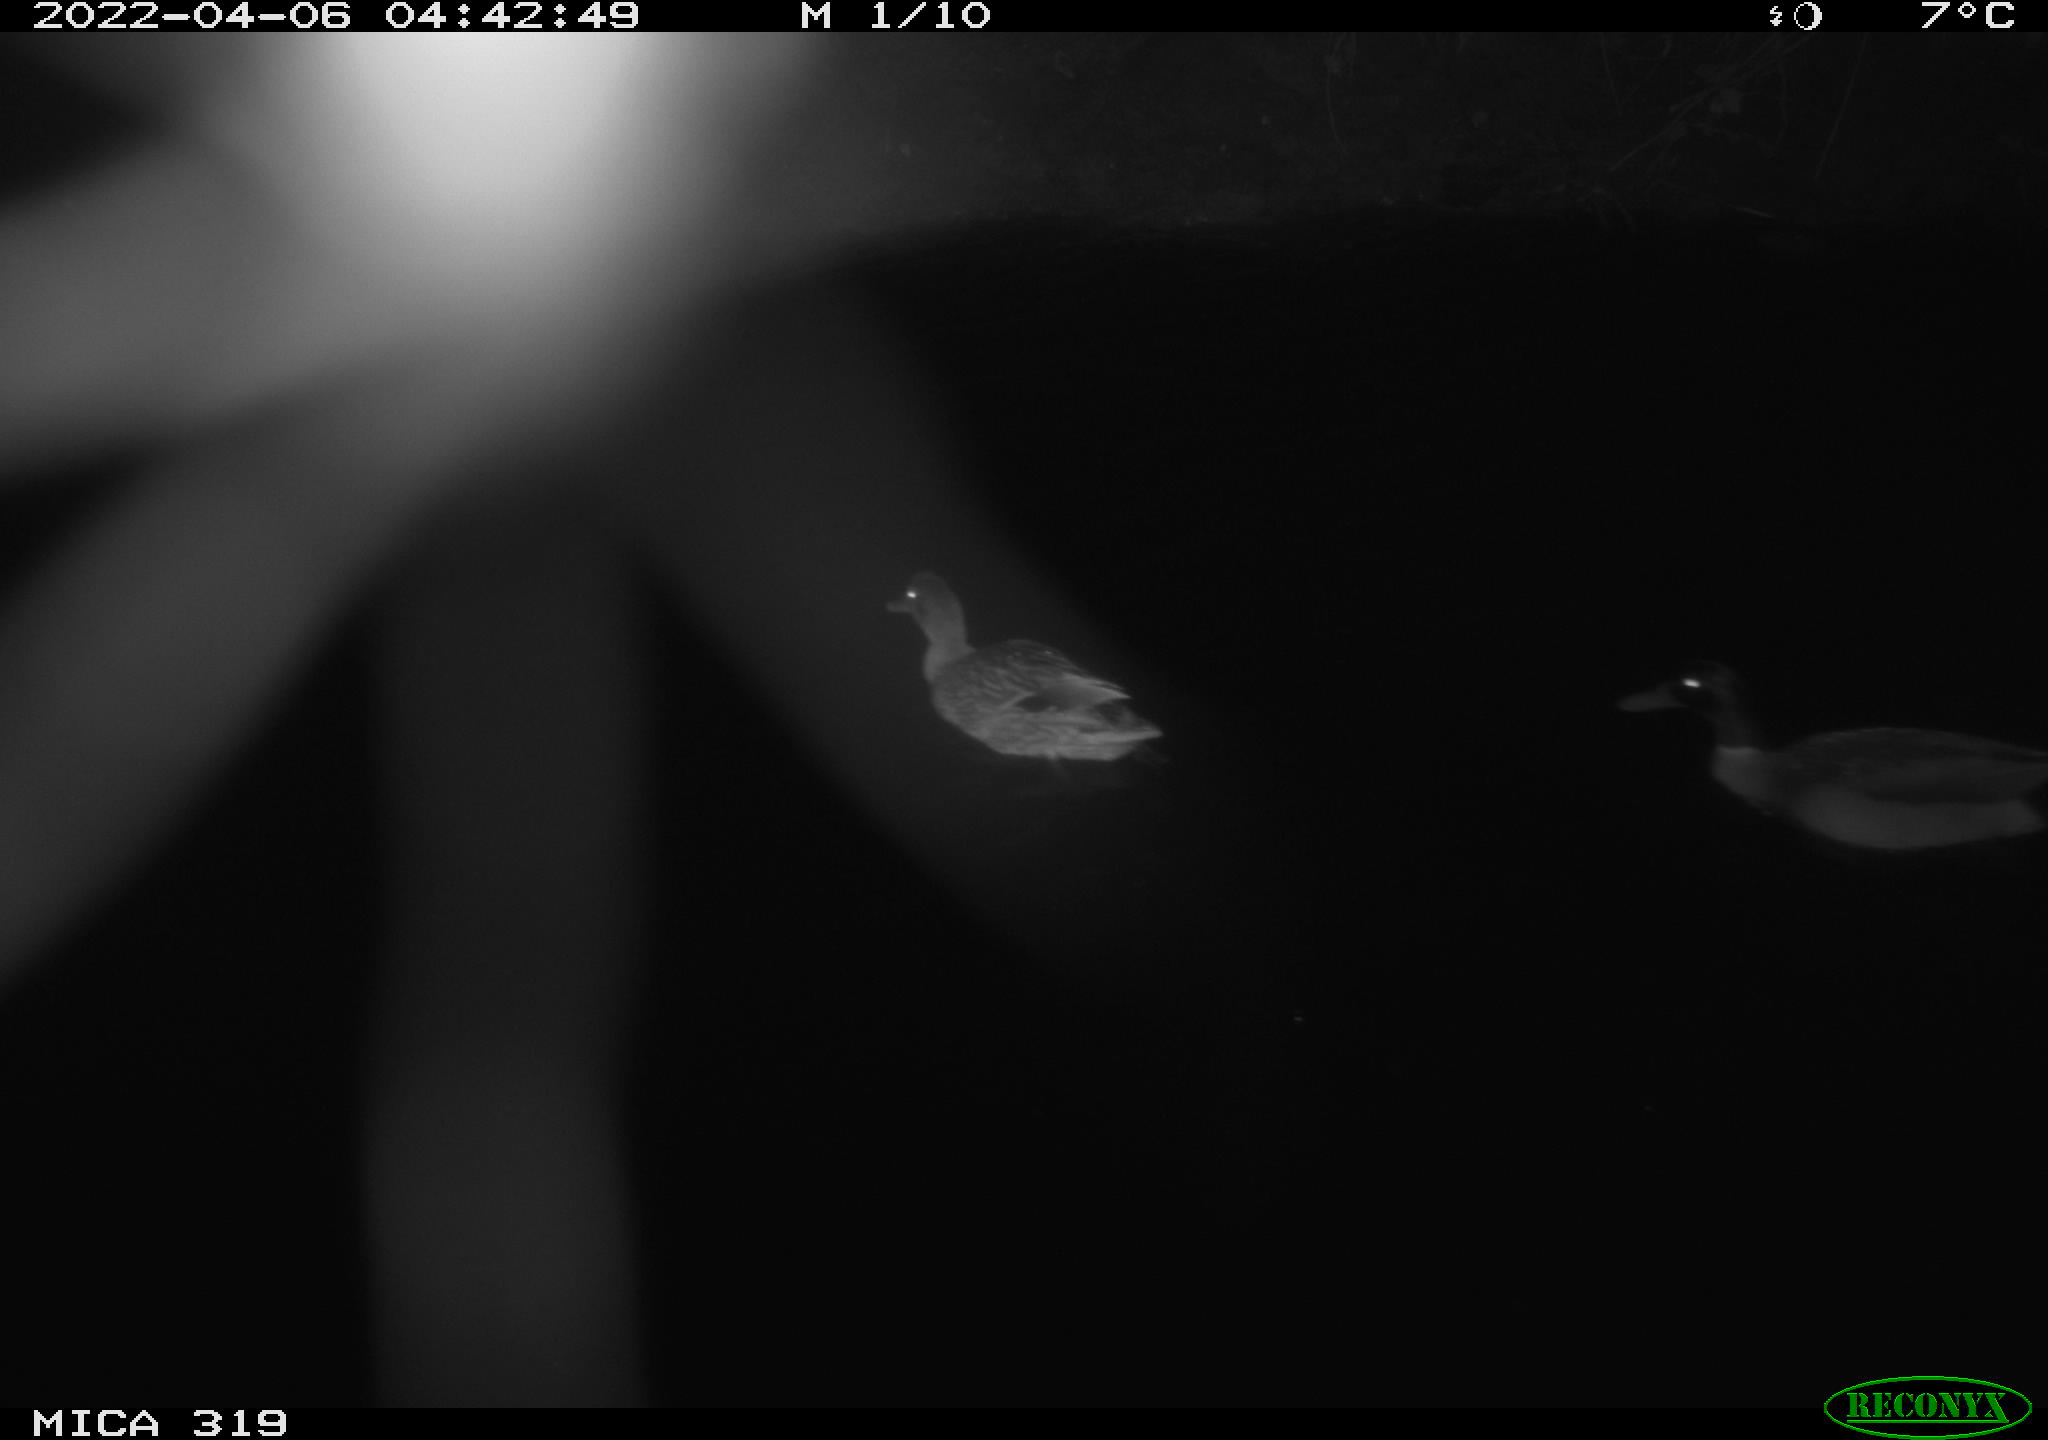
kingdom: Animalia
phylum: Chordata
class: Aves
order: Anseriformes
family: Anatidae
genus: Anas
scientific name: Anas platyrhynchos
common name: Mallard
